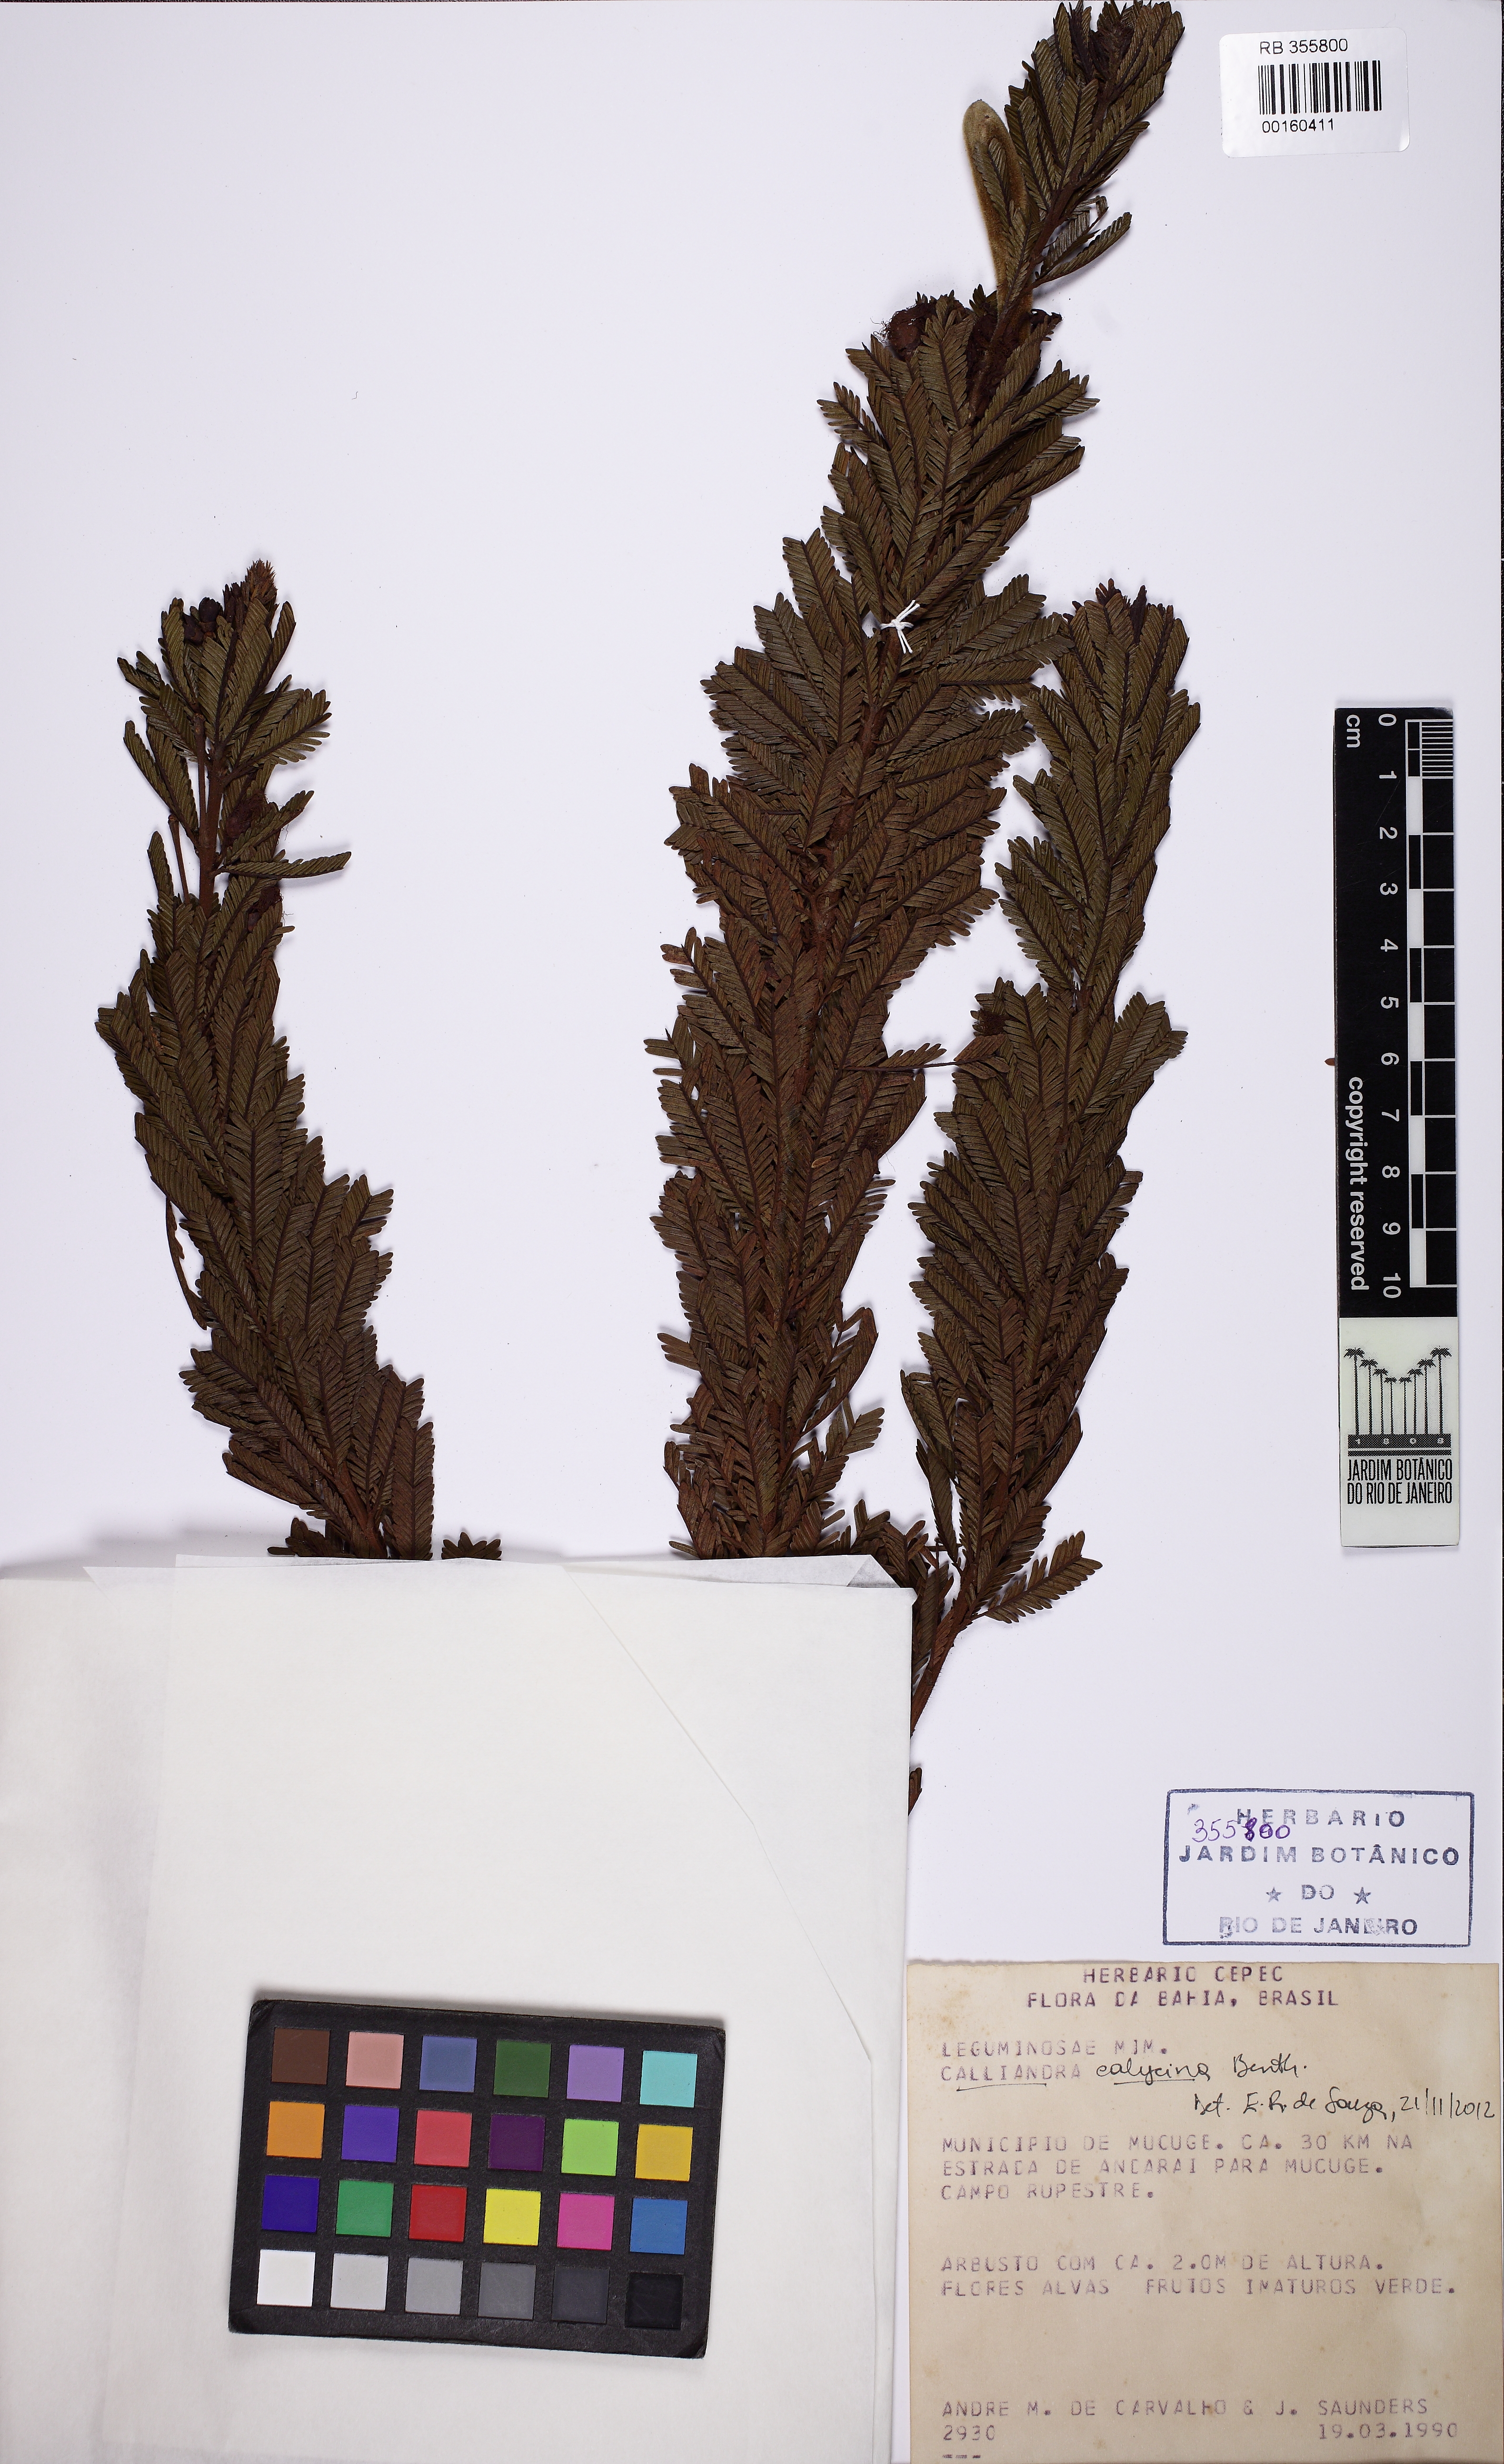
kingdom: Plantae
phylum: Tracheophyta
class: Magnoliopsida
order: Fabales
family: Fabaceae
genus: Calliandra
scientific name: Calliandra calycina
